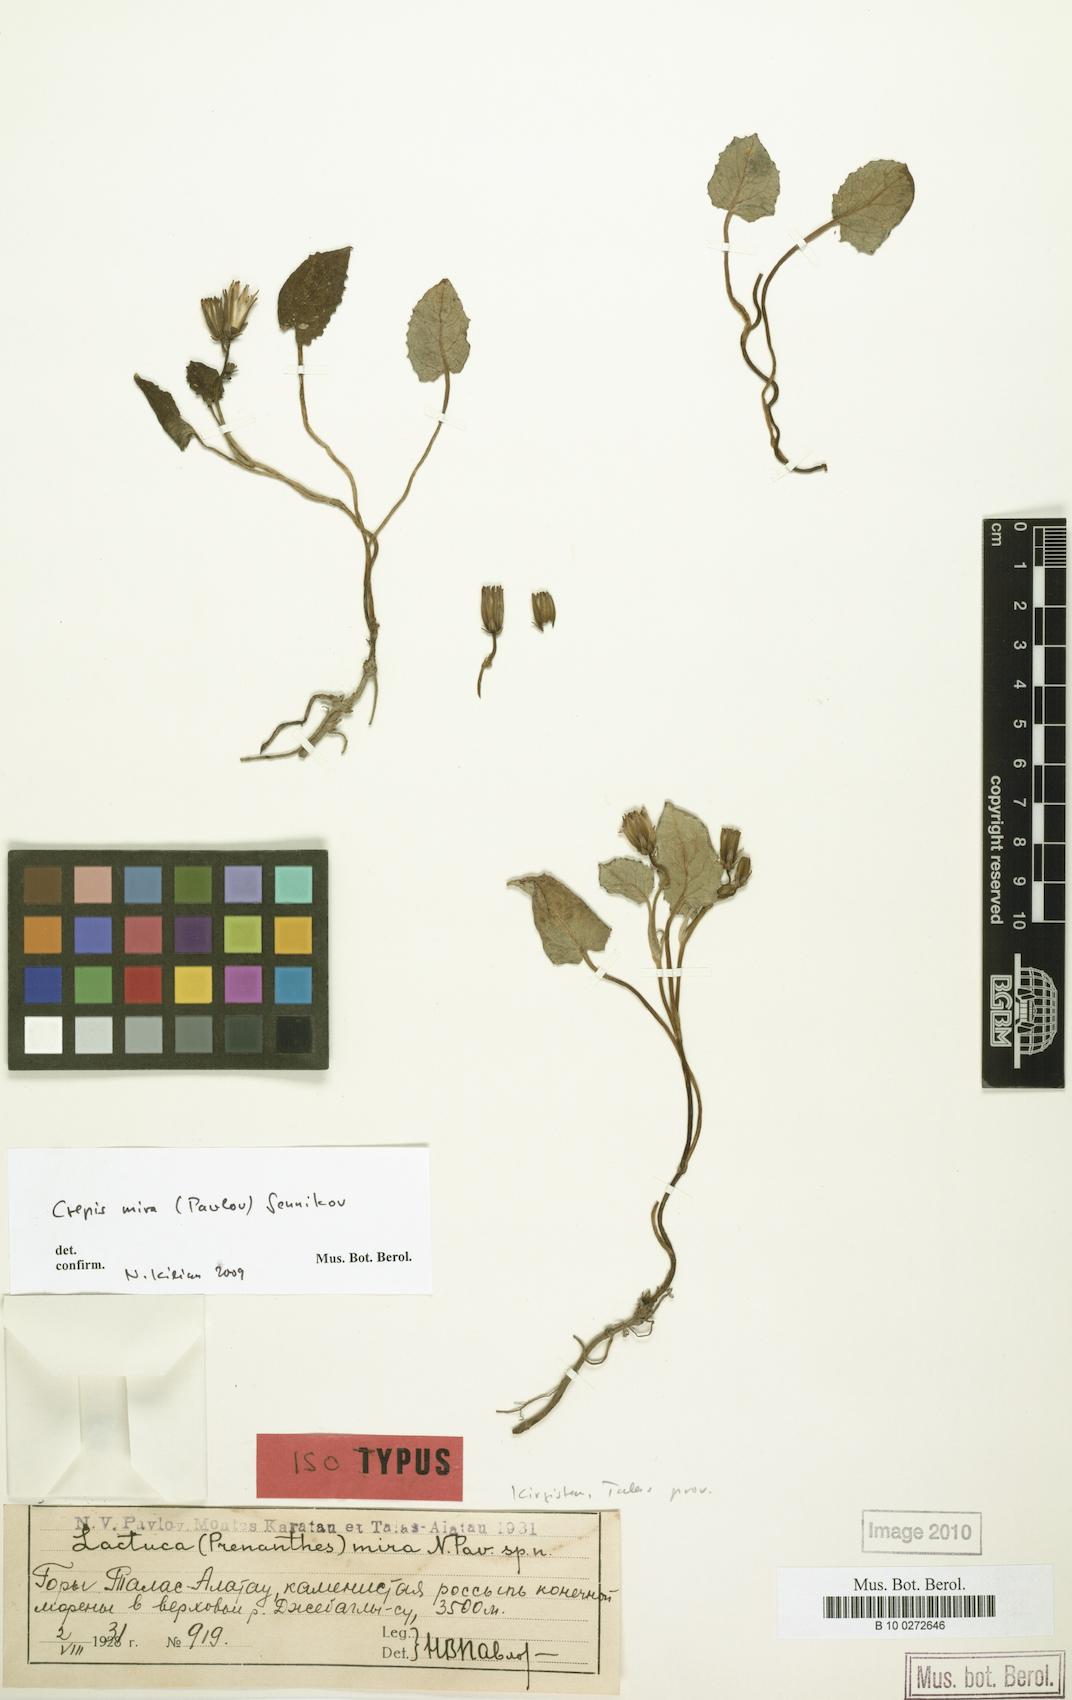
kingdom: Plantae
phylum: Tracheophyta
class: Magnoliopsida
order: Asterales
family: Asteraceae
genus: Crepis
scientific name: Crepis mira
